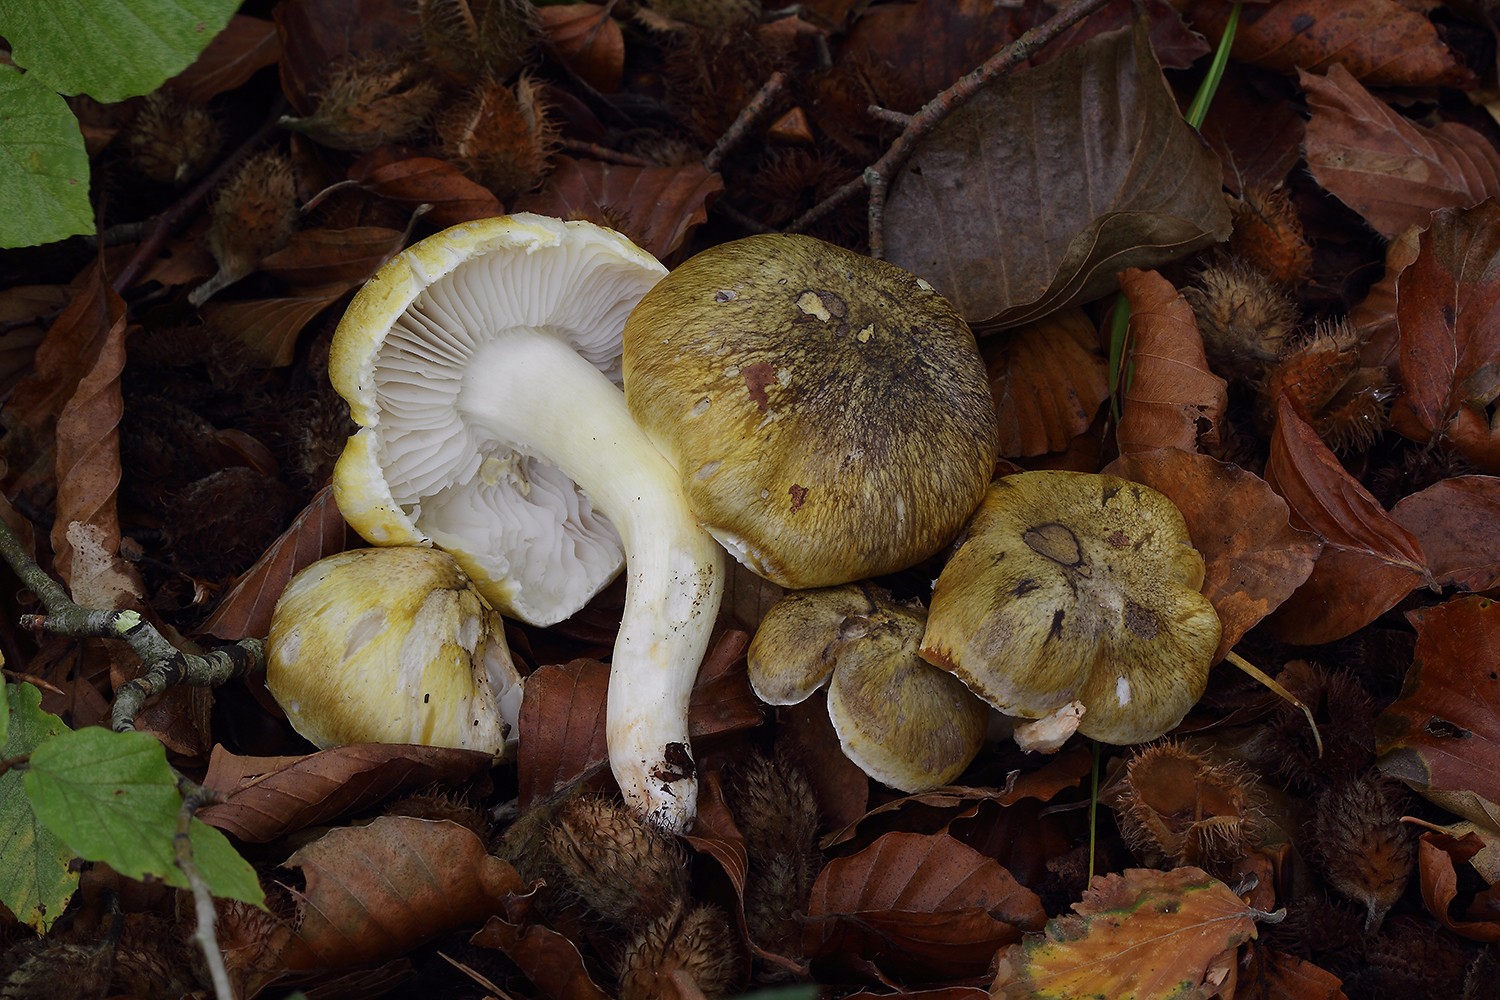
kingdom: Fungi
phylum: Basidiomycota
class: Agaricomycetes
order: Agaricales
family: Tricholomataceae
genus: Tricholoma
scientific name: Tricholoma sejunctum
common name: grøngul ridderhat
